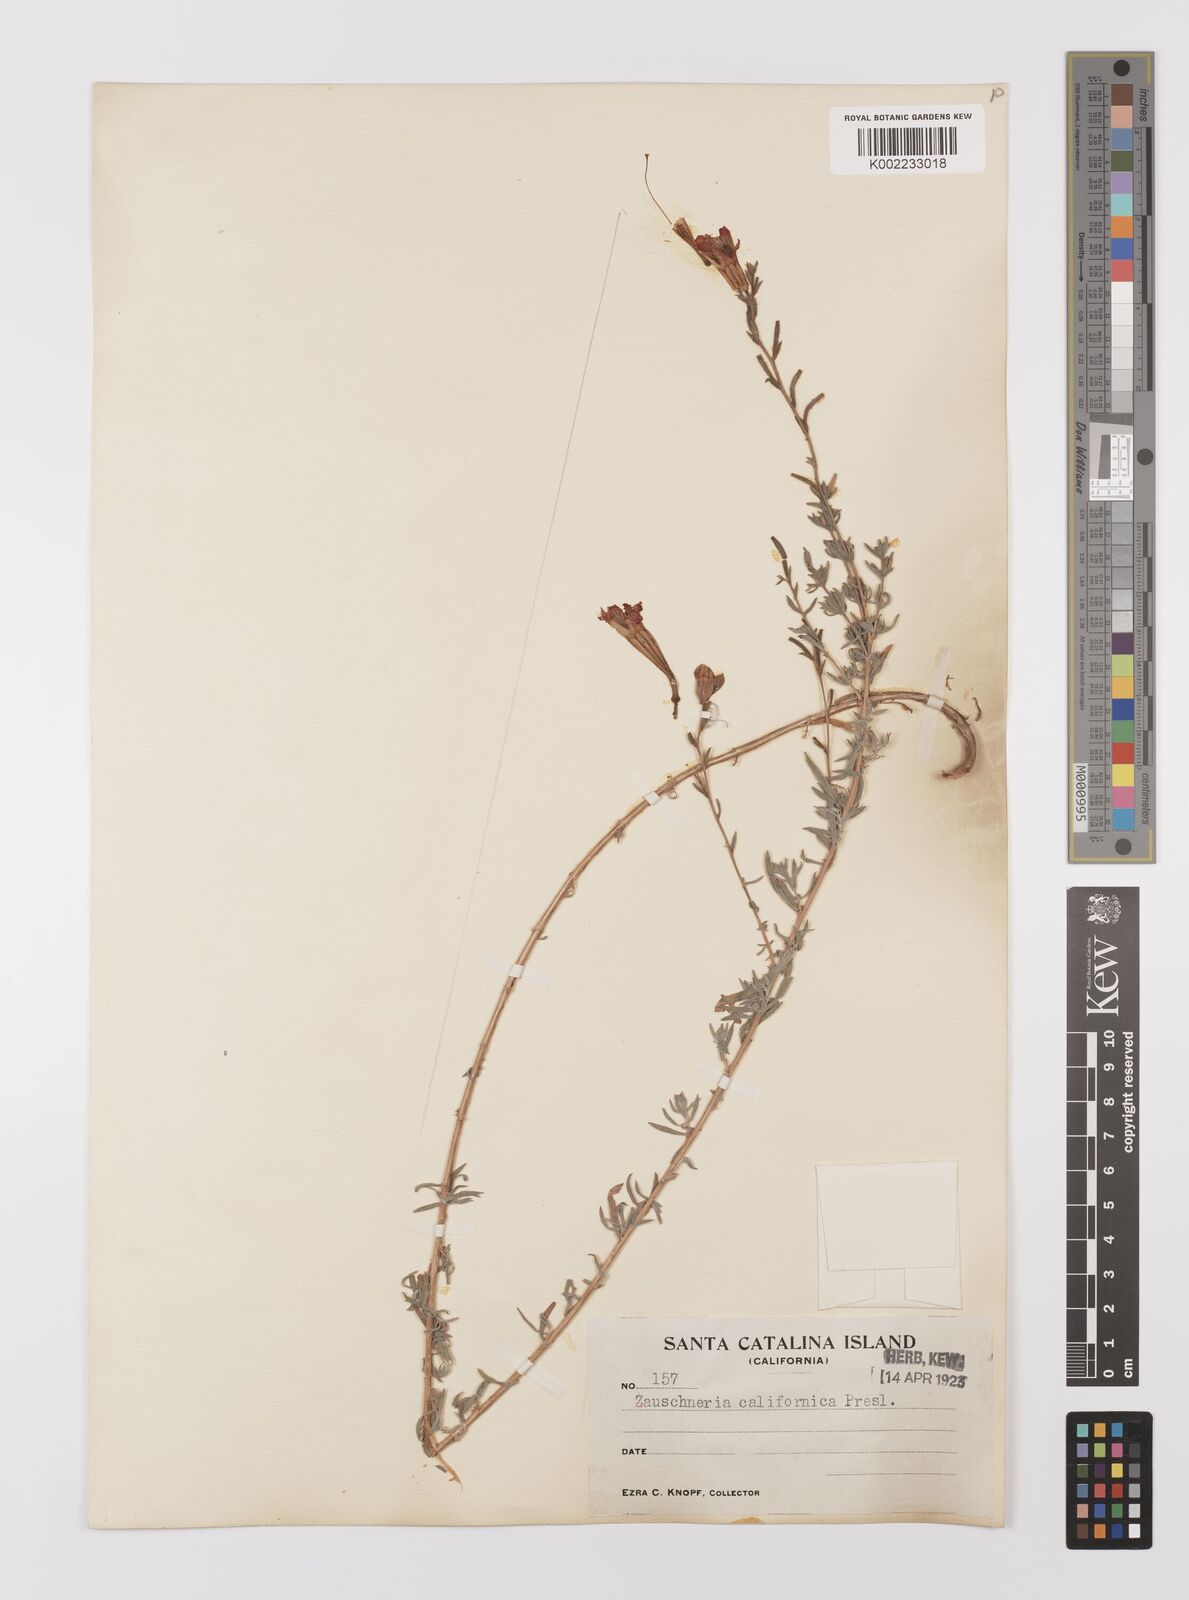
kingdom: Plantae
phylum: Tracheophyta
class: Magnoliopsida
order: Myrtales
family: Onagraceae
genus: Epilobium
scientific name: Epilobium canum
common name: California-fuchsia
